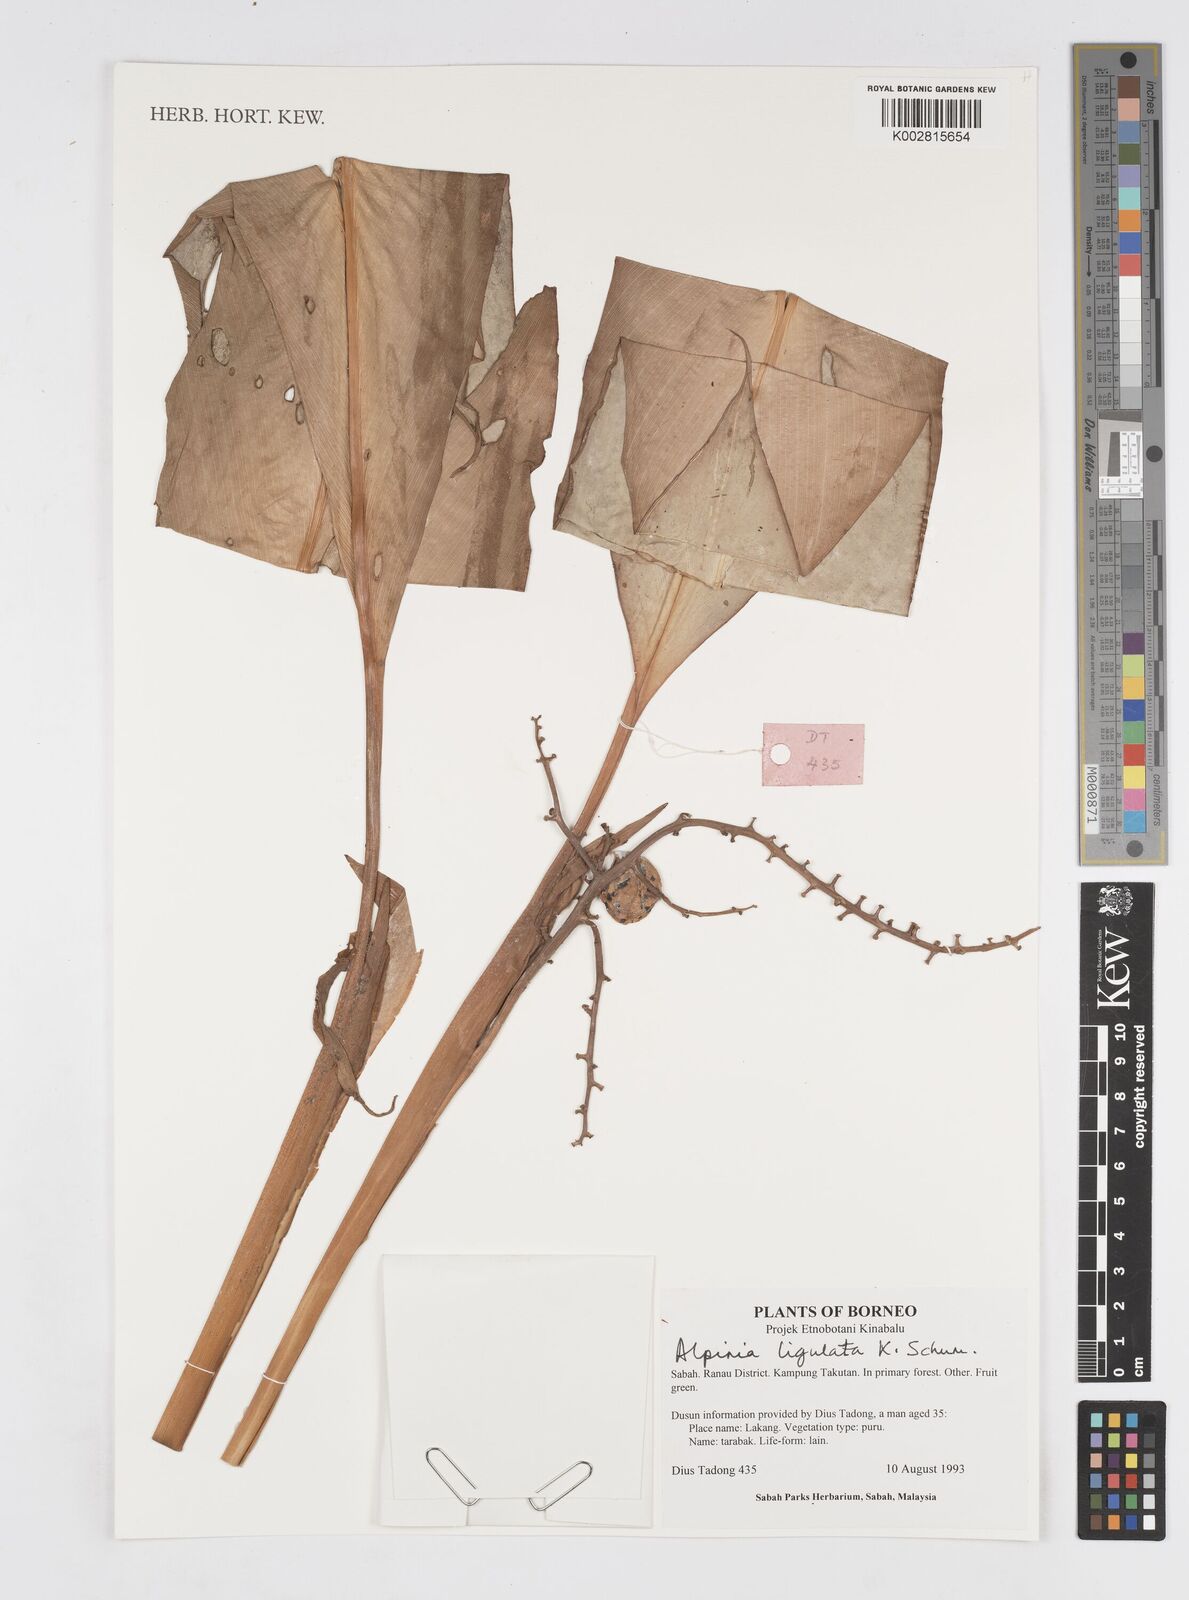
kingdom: Plantae
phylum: Tracheophyta
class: Liliopsida
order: Zingiberales
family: Zingiberaceae
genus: Alpinia
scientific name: Alpinia ligulata
